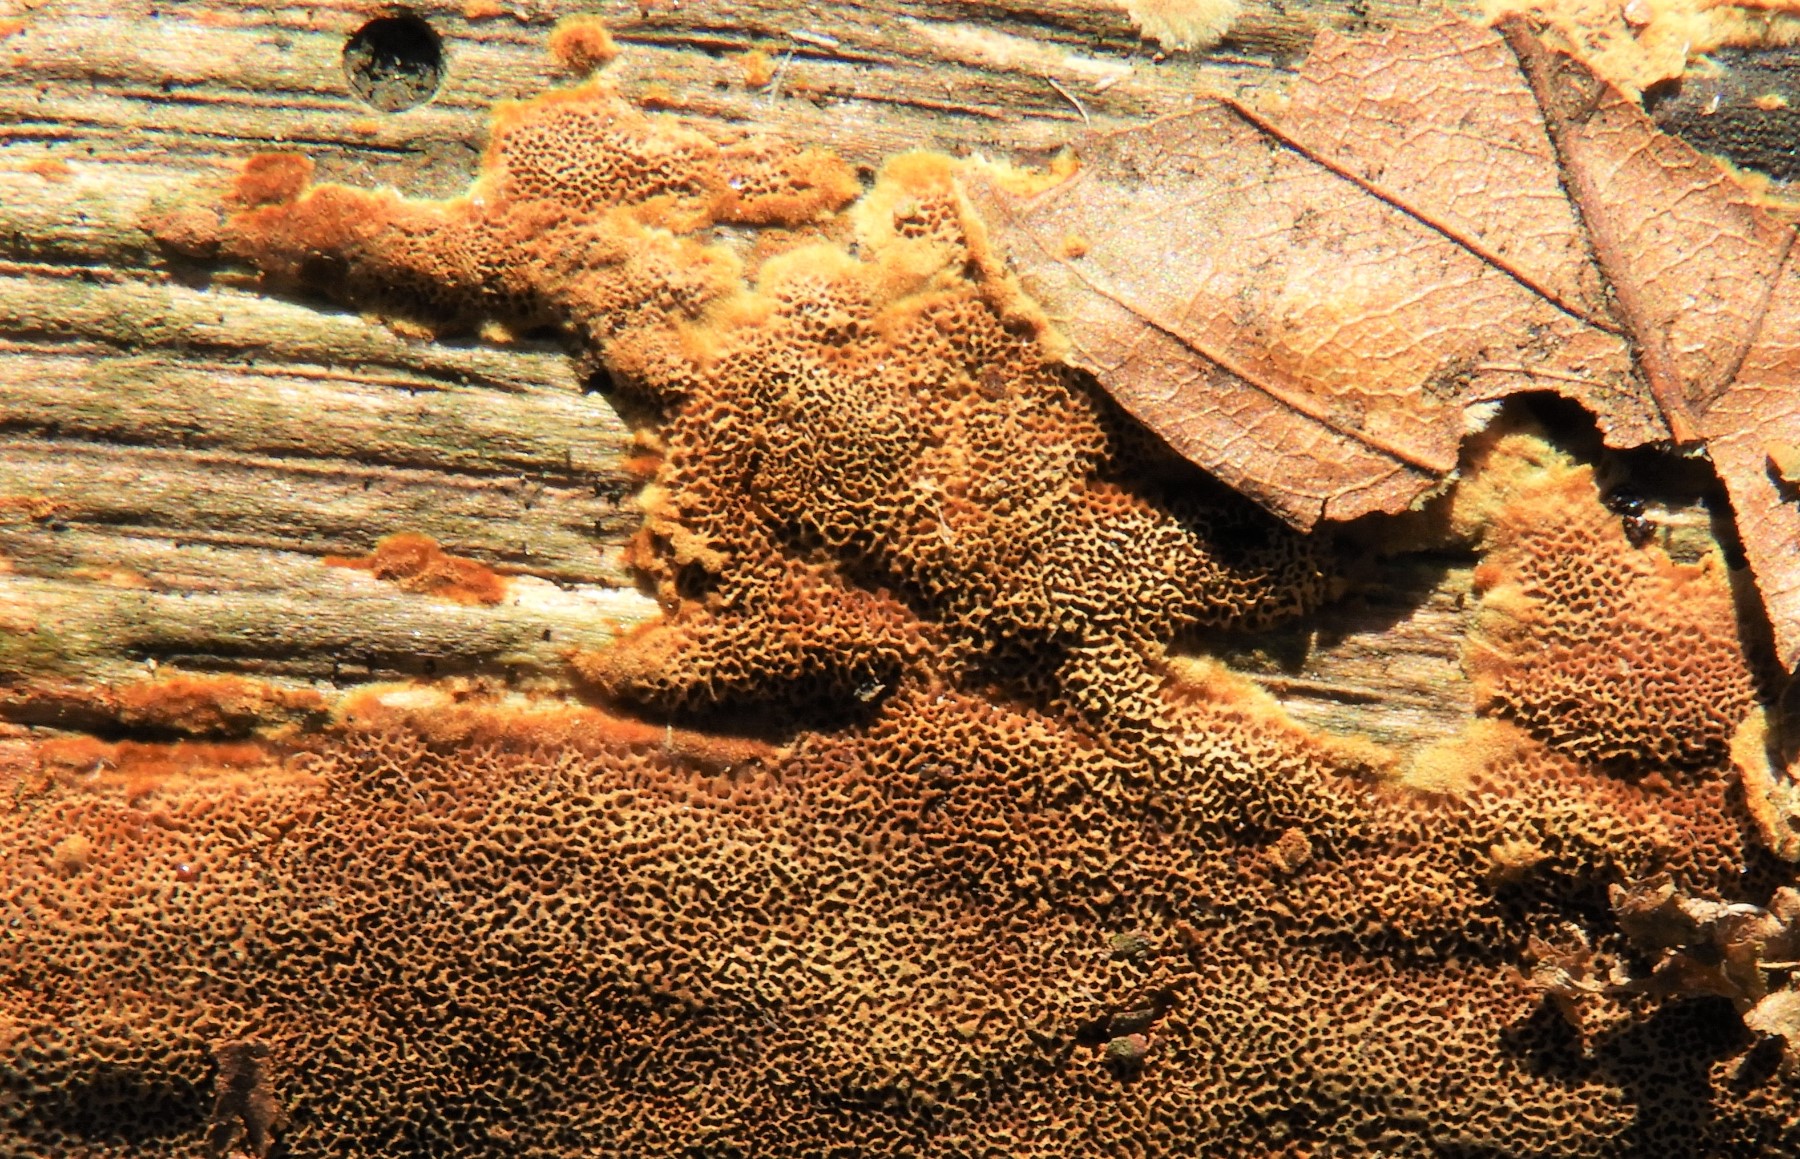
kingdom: Fungi
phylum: Basidiomycota
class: Agaricomycetes
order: Hymenochaetales
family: Hymenochaetaceae
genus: Fuscoporia
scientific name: Fuscoporia ferruginosa
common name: rustbrun ildporesvamp
